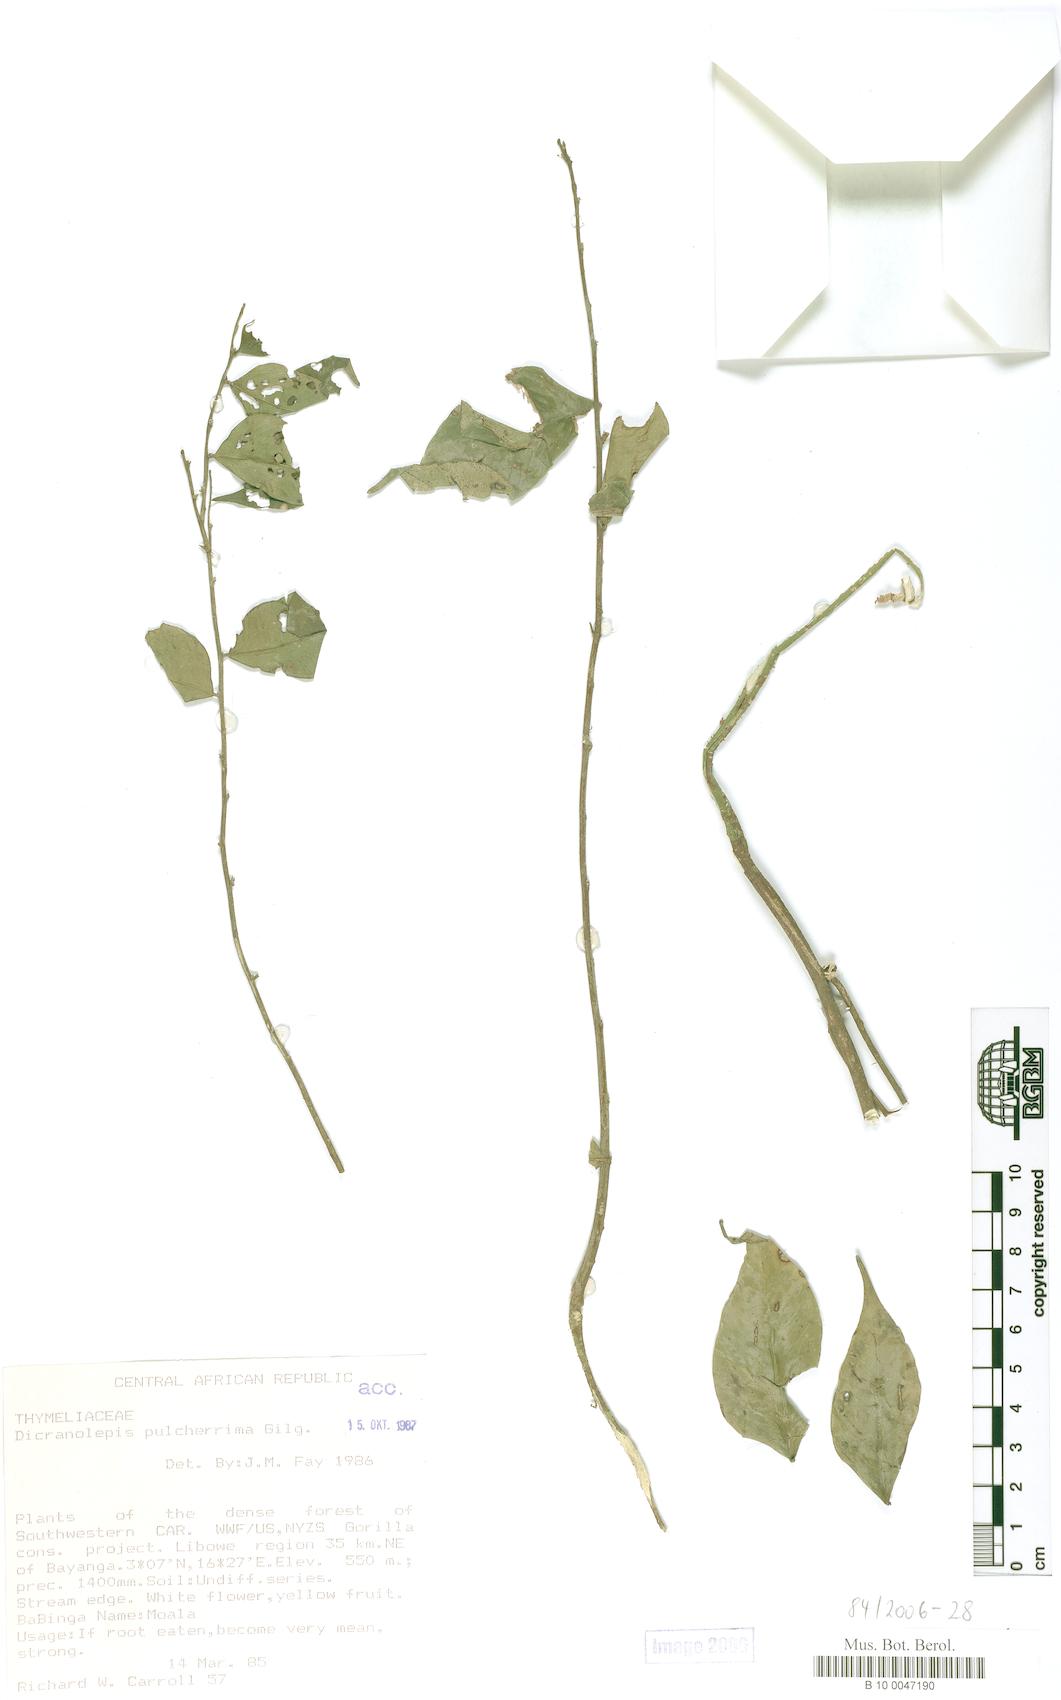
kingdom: Plantae
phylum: Tracheophyta
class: Magnoliopsida
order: Malvales
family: Thymelaeaceae
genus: Dicranolepis
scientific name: Dicranolepis pulcherrima
